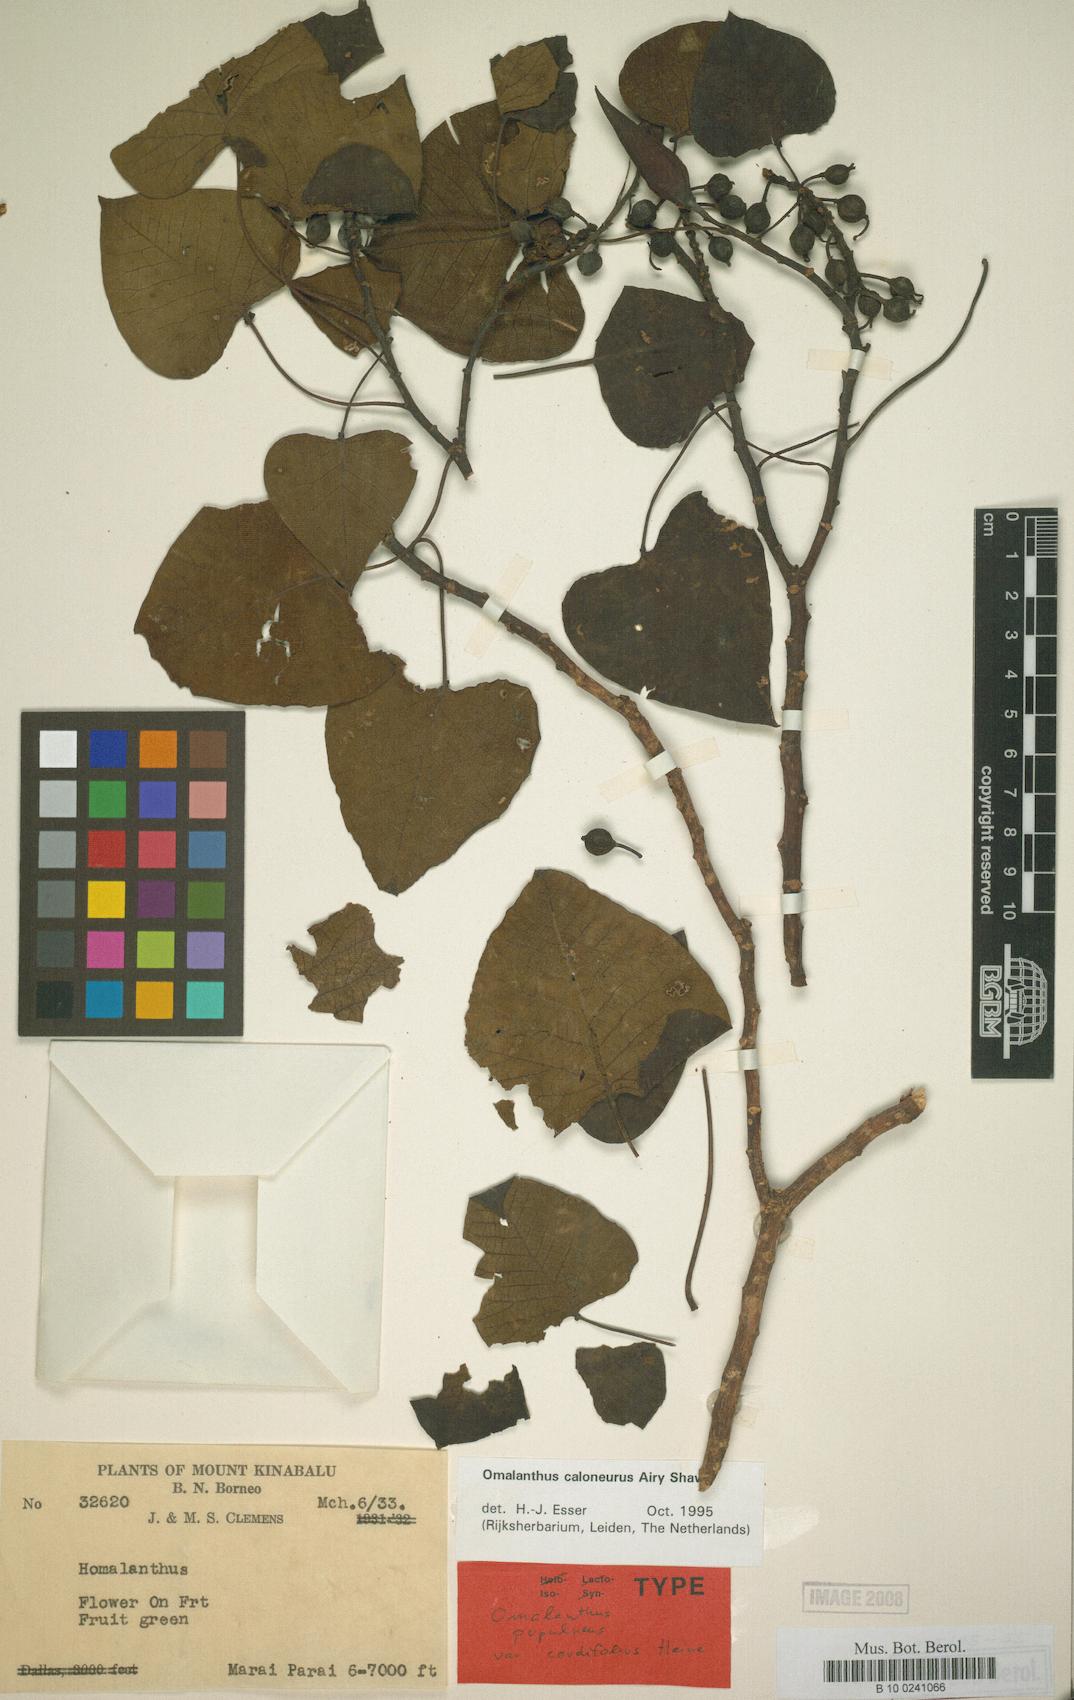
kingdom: Plantae
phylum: Tracheophyta
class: Magnoliopsida
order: Malpighiales
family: Euphorbiaceae
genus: Homalanthus
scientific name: Homalanthus caloneurus
